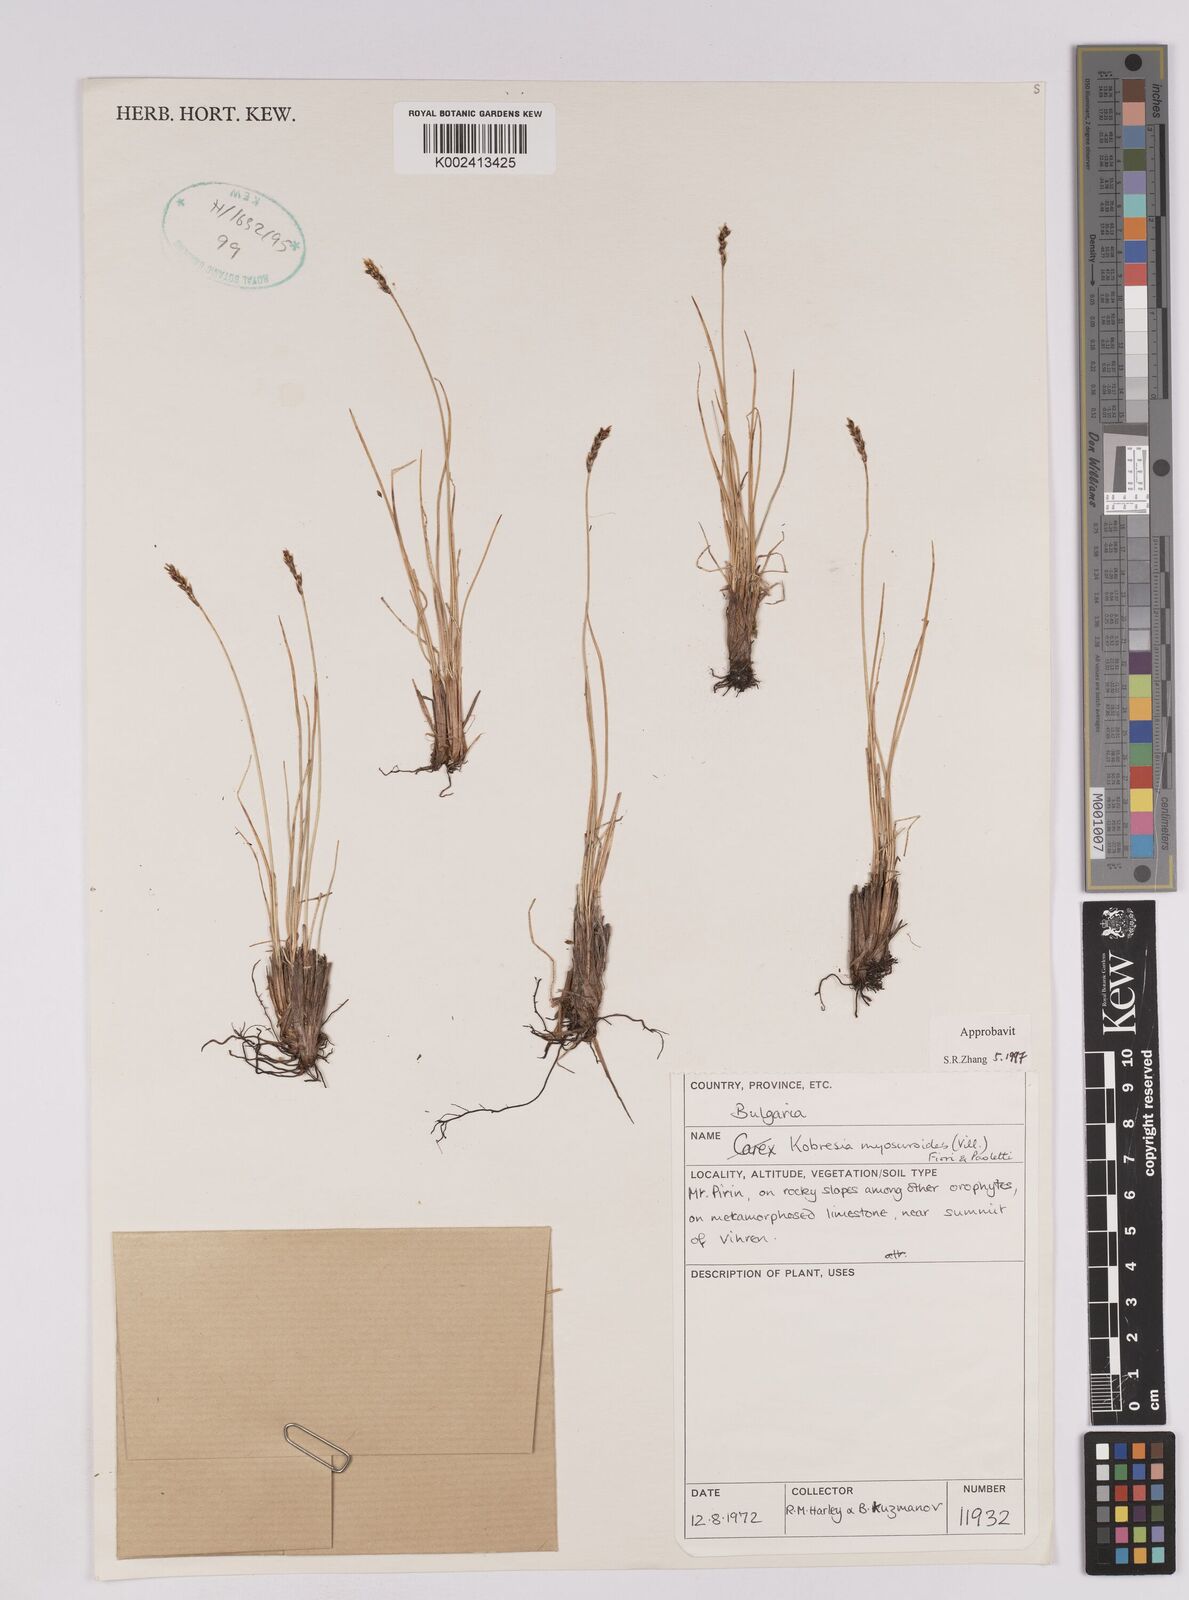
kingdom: Plantae
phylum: Tracheophyta
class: Liliopsida
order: Poales
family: Cyperaceae
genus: Carex
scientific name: Carex myosuroides
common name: Bellard's bog sedge
